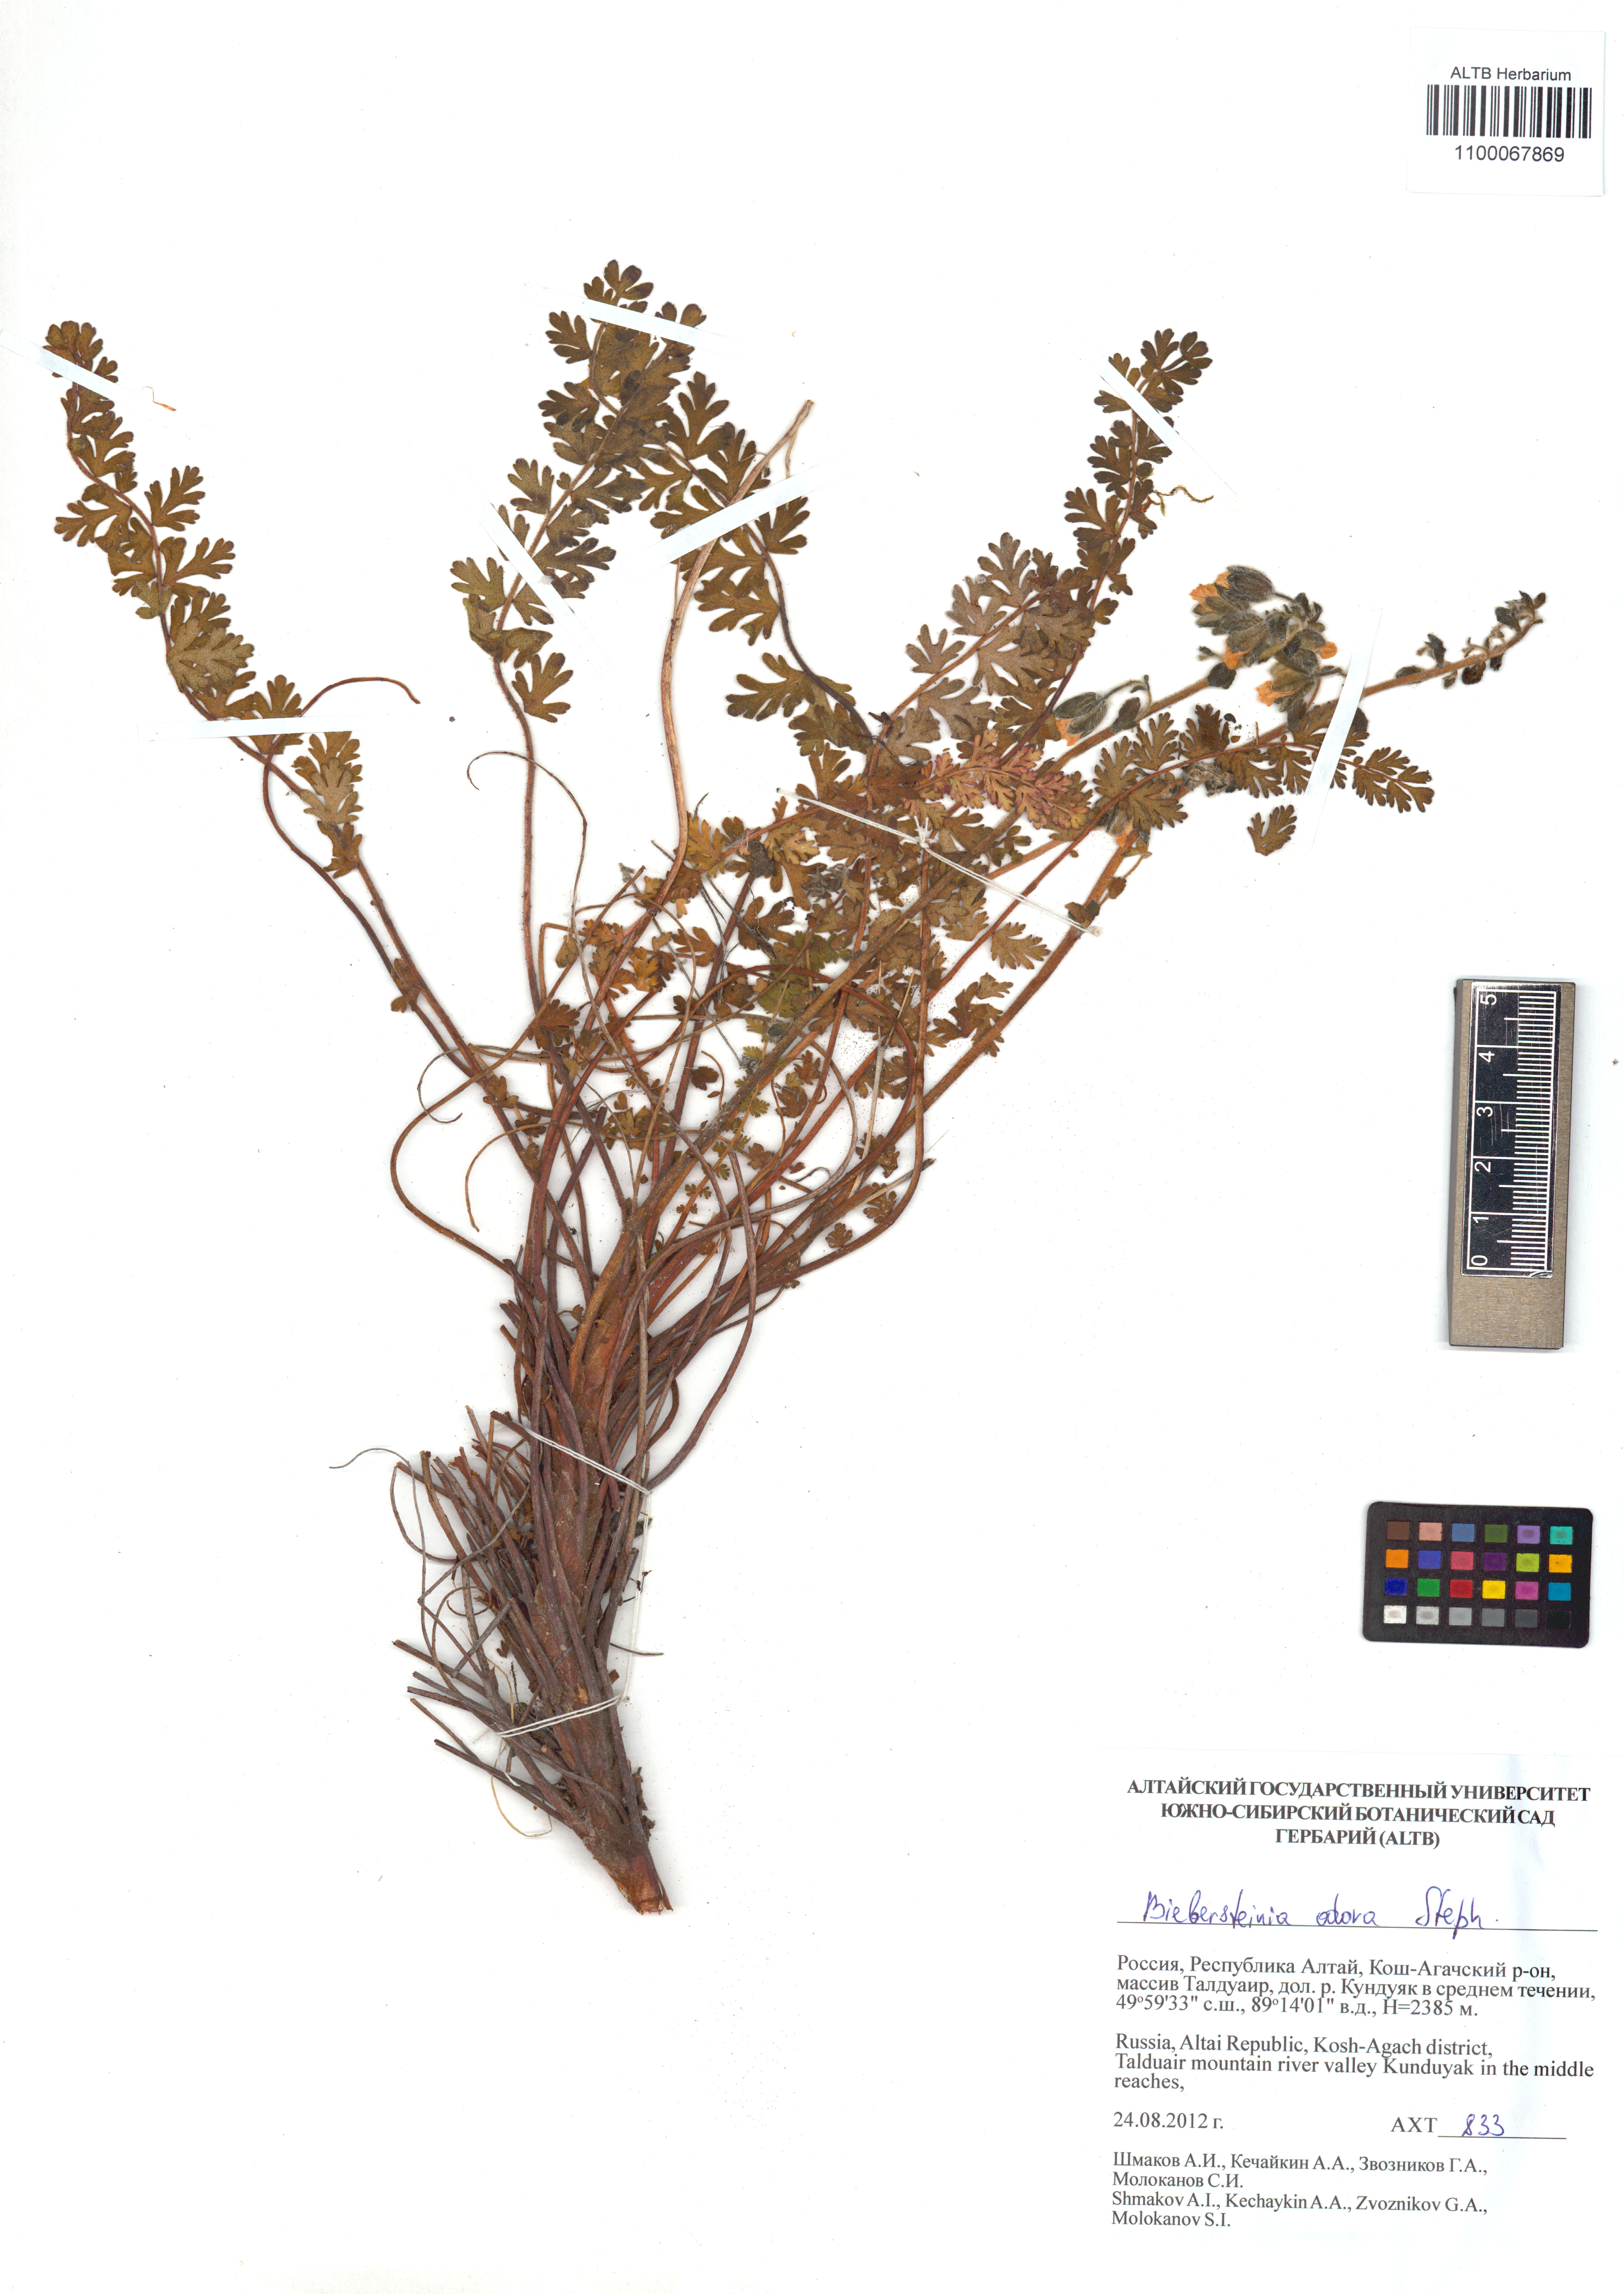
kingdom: Plantae
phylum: Tracheophyta
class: Magnoliopsida
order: Sapindales
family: Biebersteiniaceae
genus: Biebersteinia
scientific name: Biebersteinia odora
